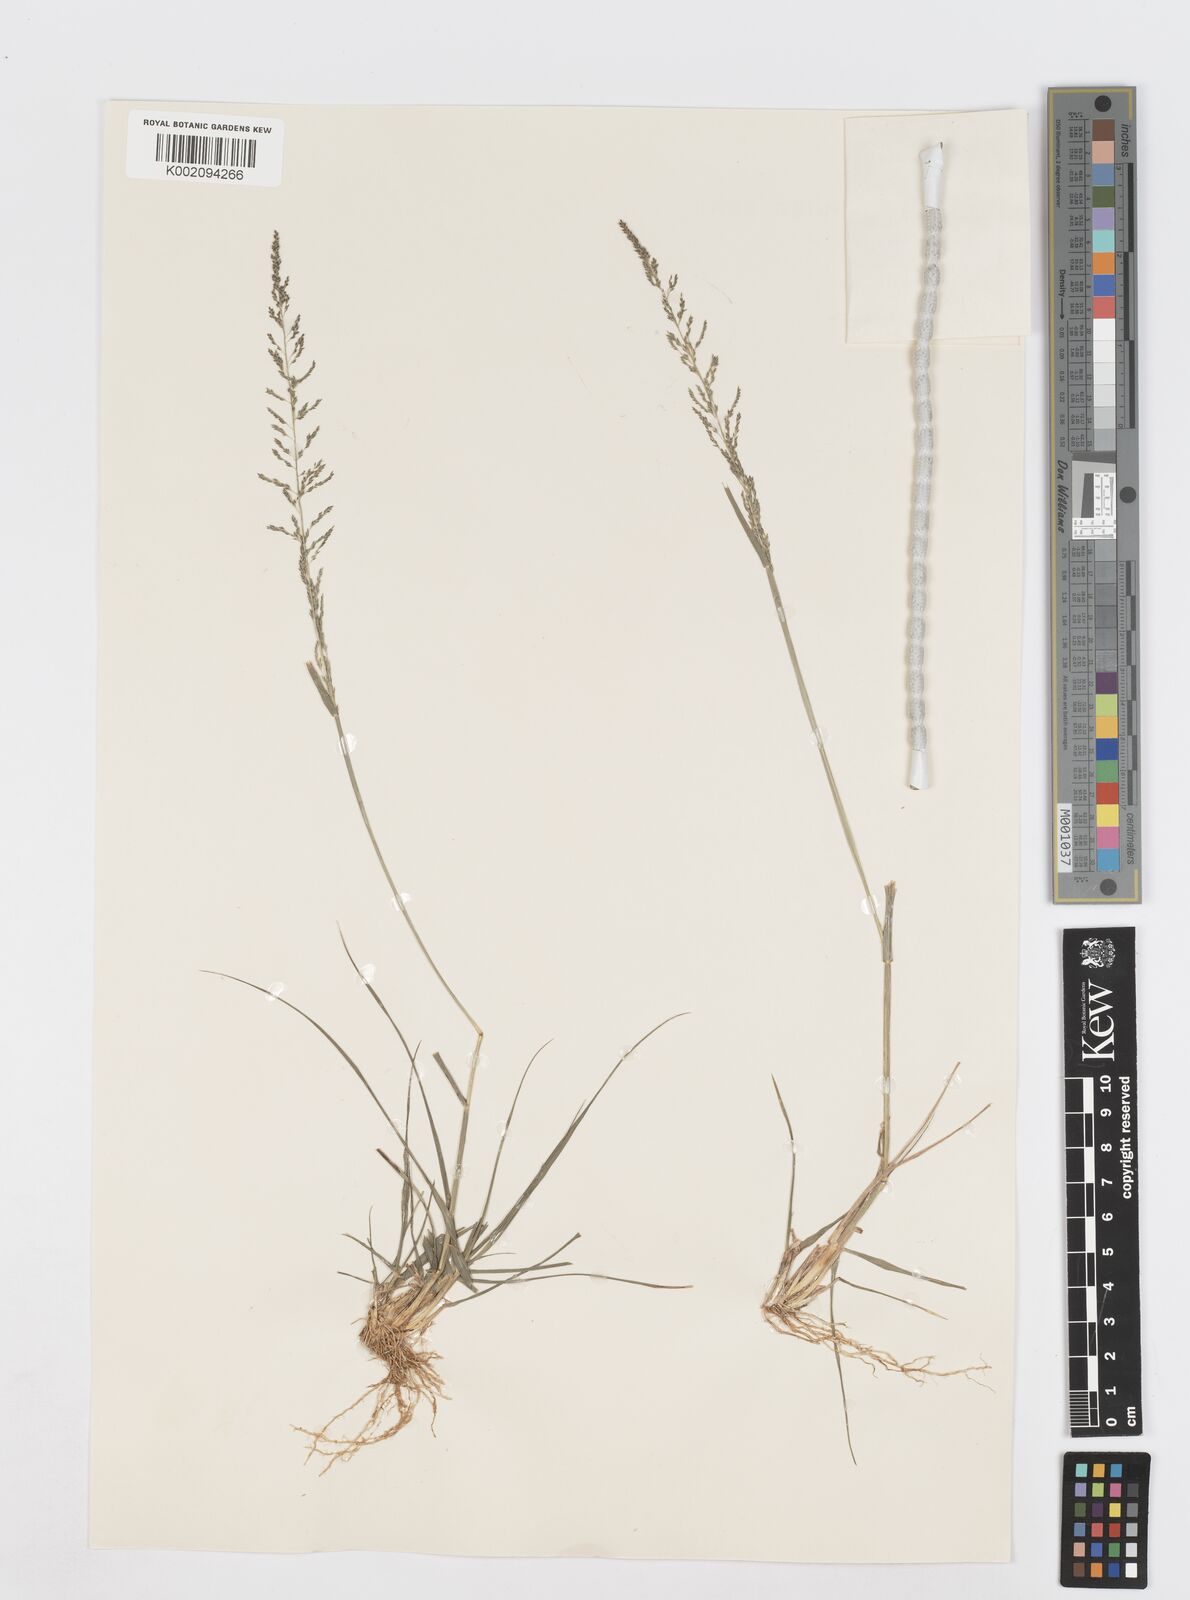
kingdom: Plantae
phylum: Tracheophyta
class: Liliopsida
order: Poales
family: Poaceae
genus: Sporobolus
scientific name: Sporobolus diandrus
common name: Tussock dropseed
